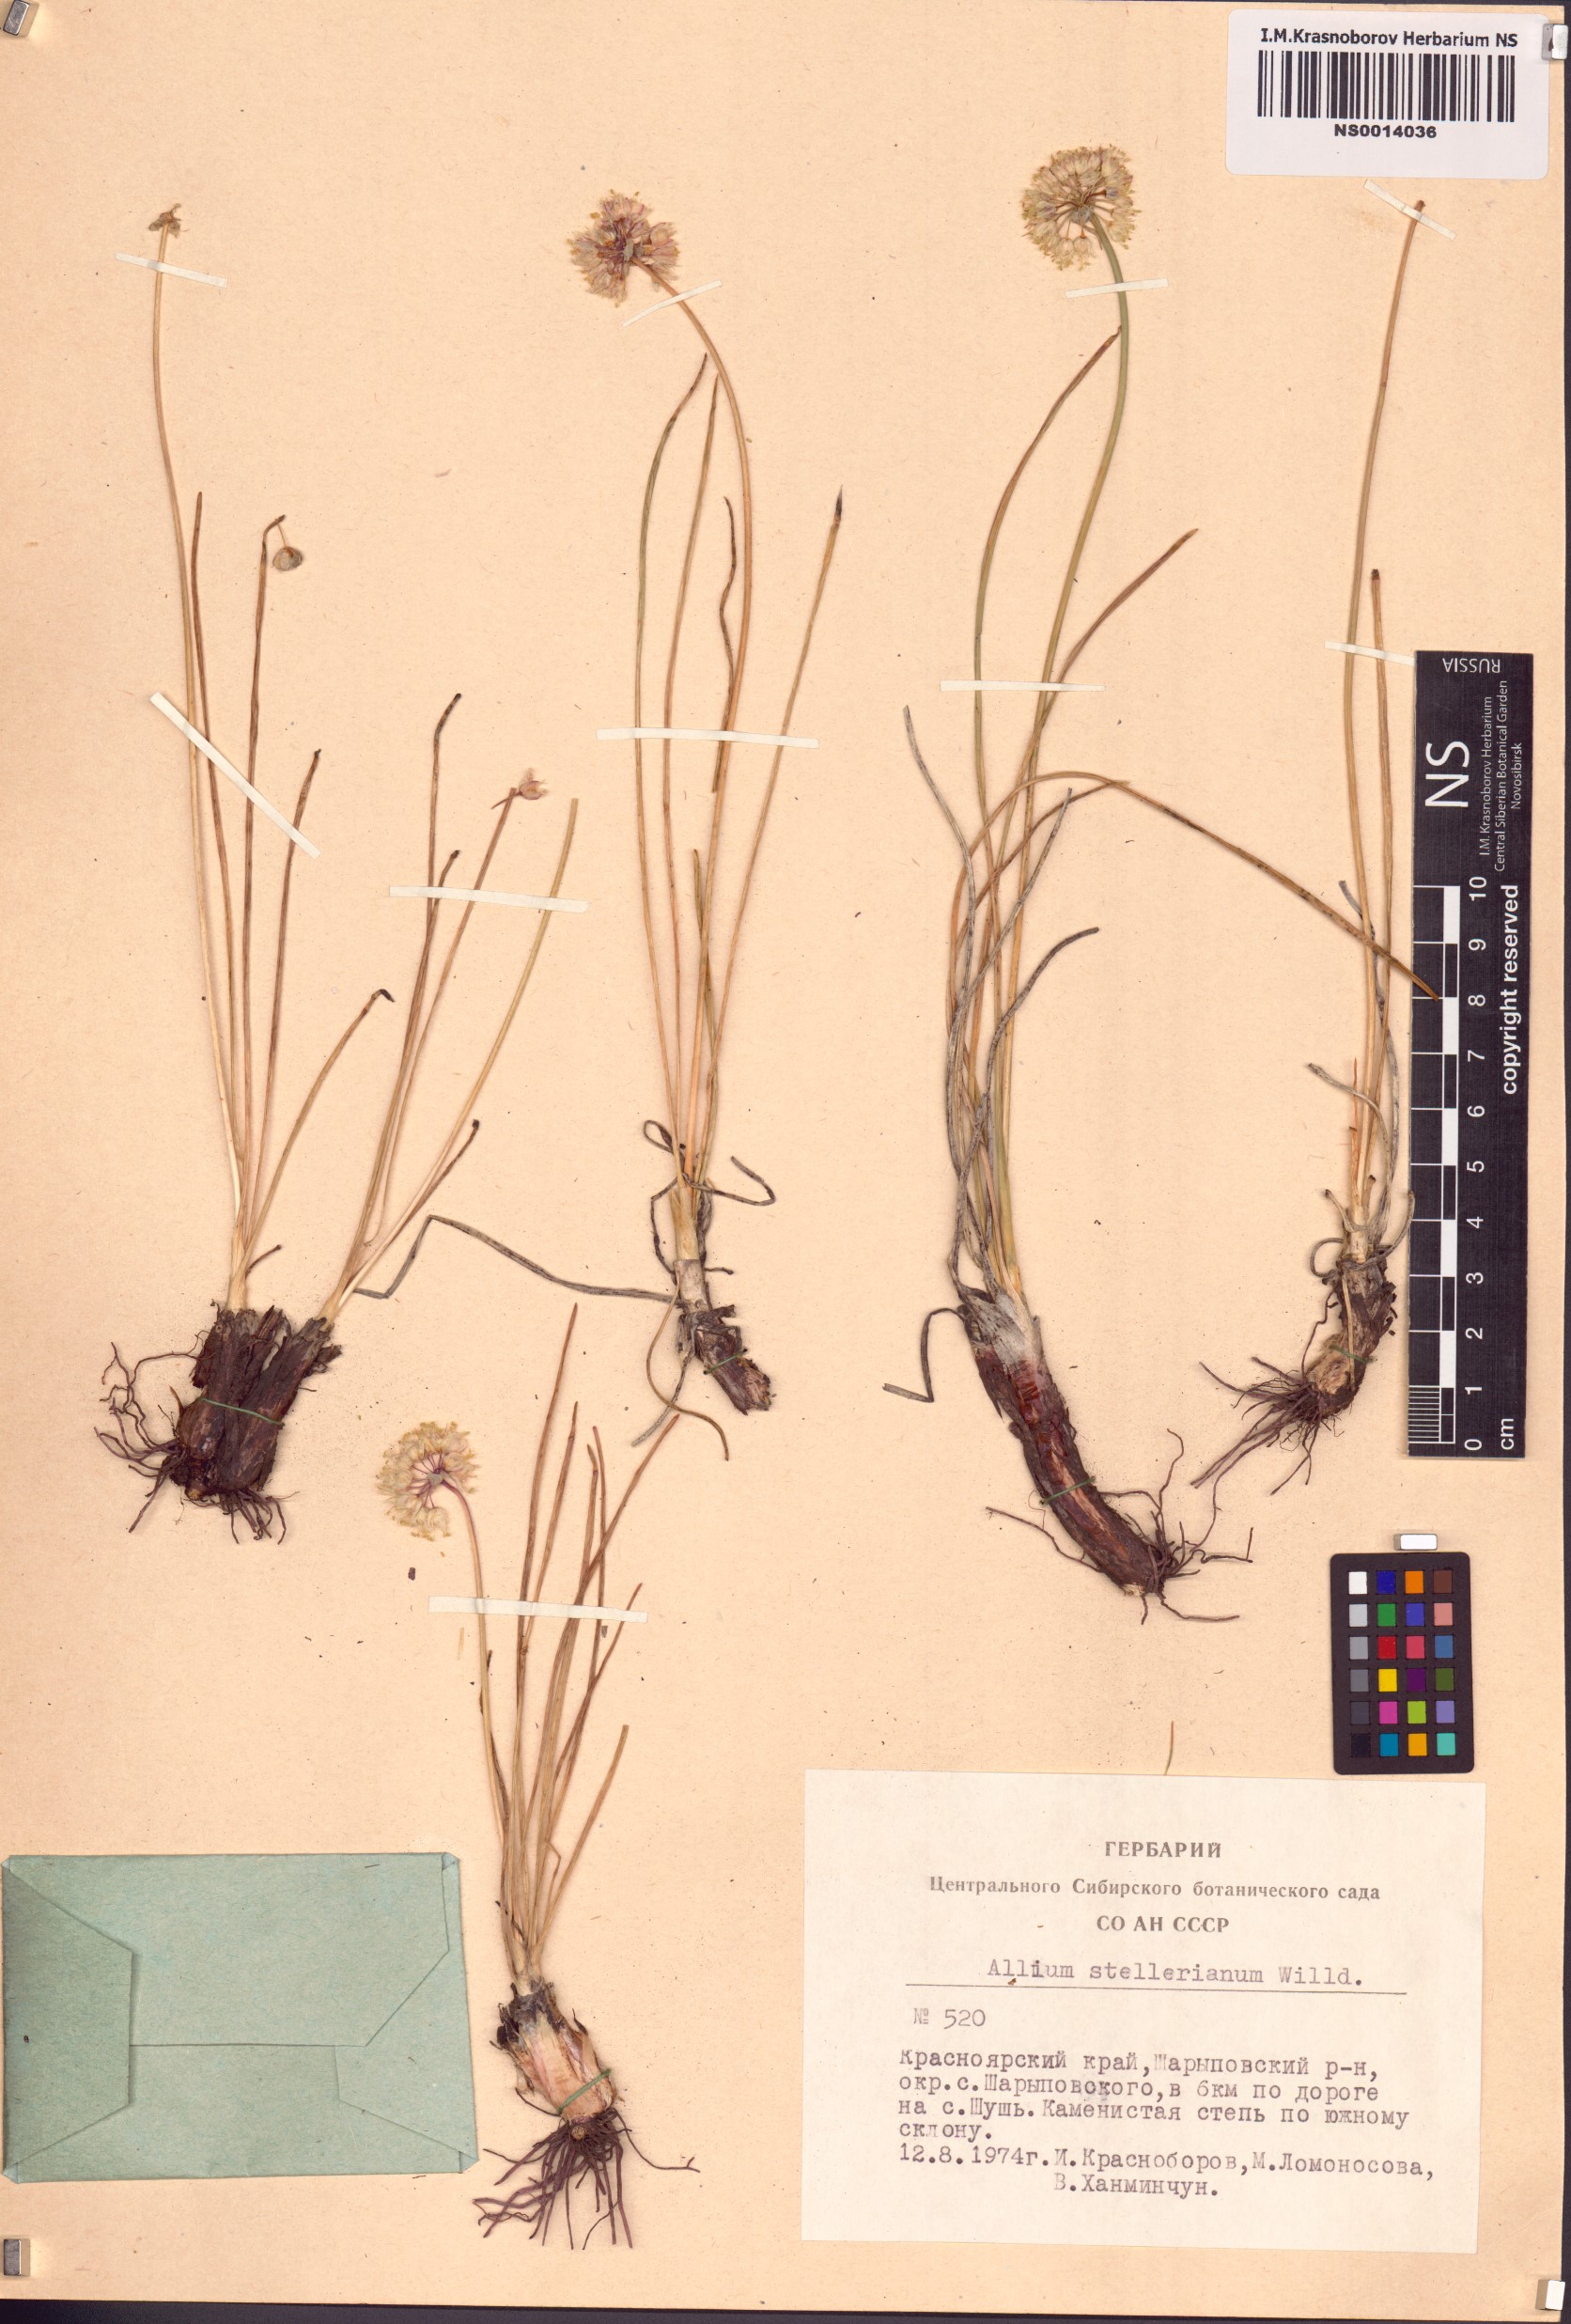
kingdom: Plantae
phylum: Tracheophyta
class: Liliopsida
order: Asparagales
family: Amaryllidaceae
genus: Allium
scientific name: Allium stellerianum
